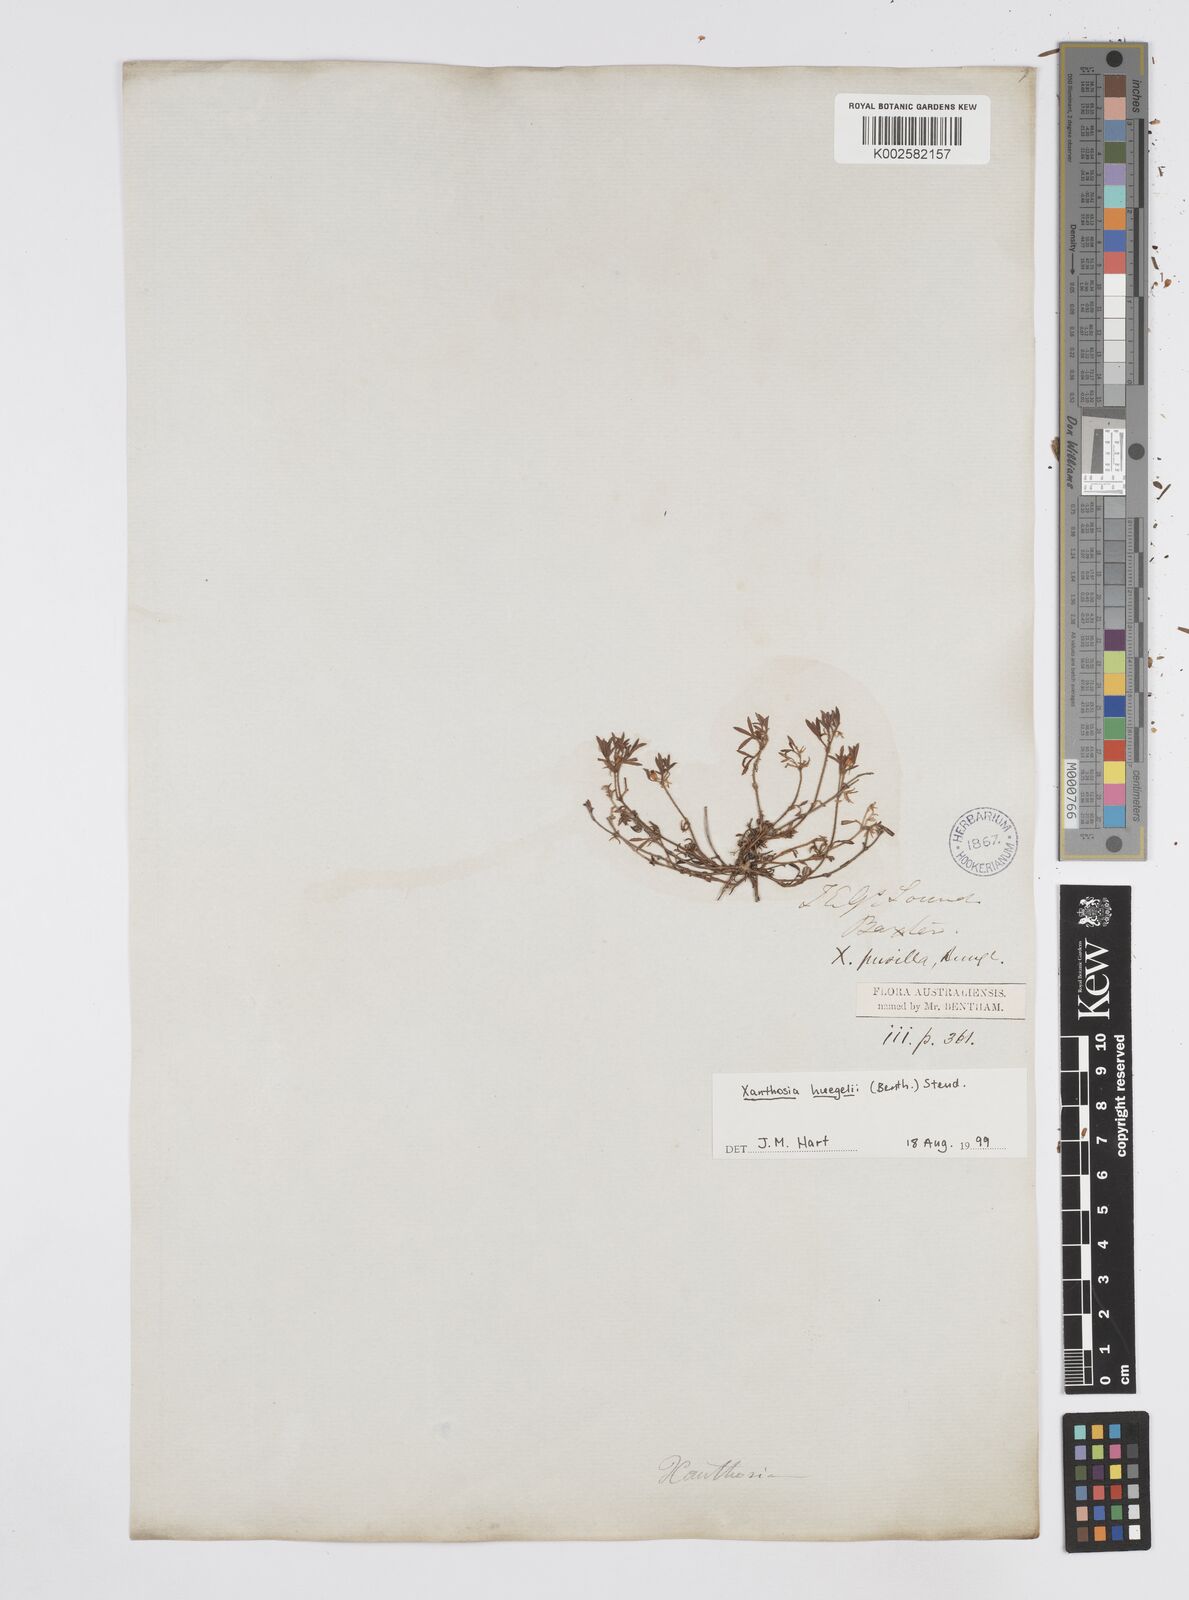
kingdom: Plantae
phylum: Tracheophyta
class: Magnoliopsida
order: Apiales
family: Apiaceae
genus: Xanthosia
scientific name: Xanthosia huegelii
